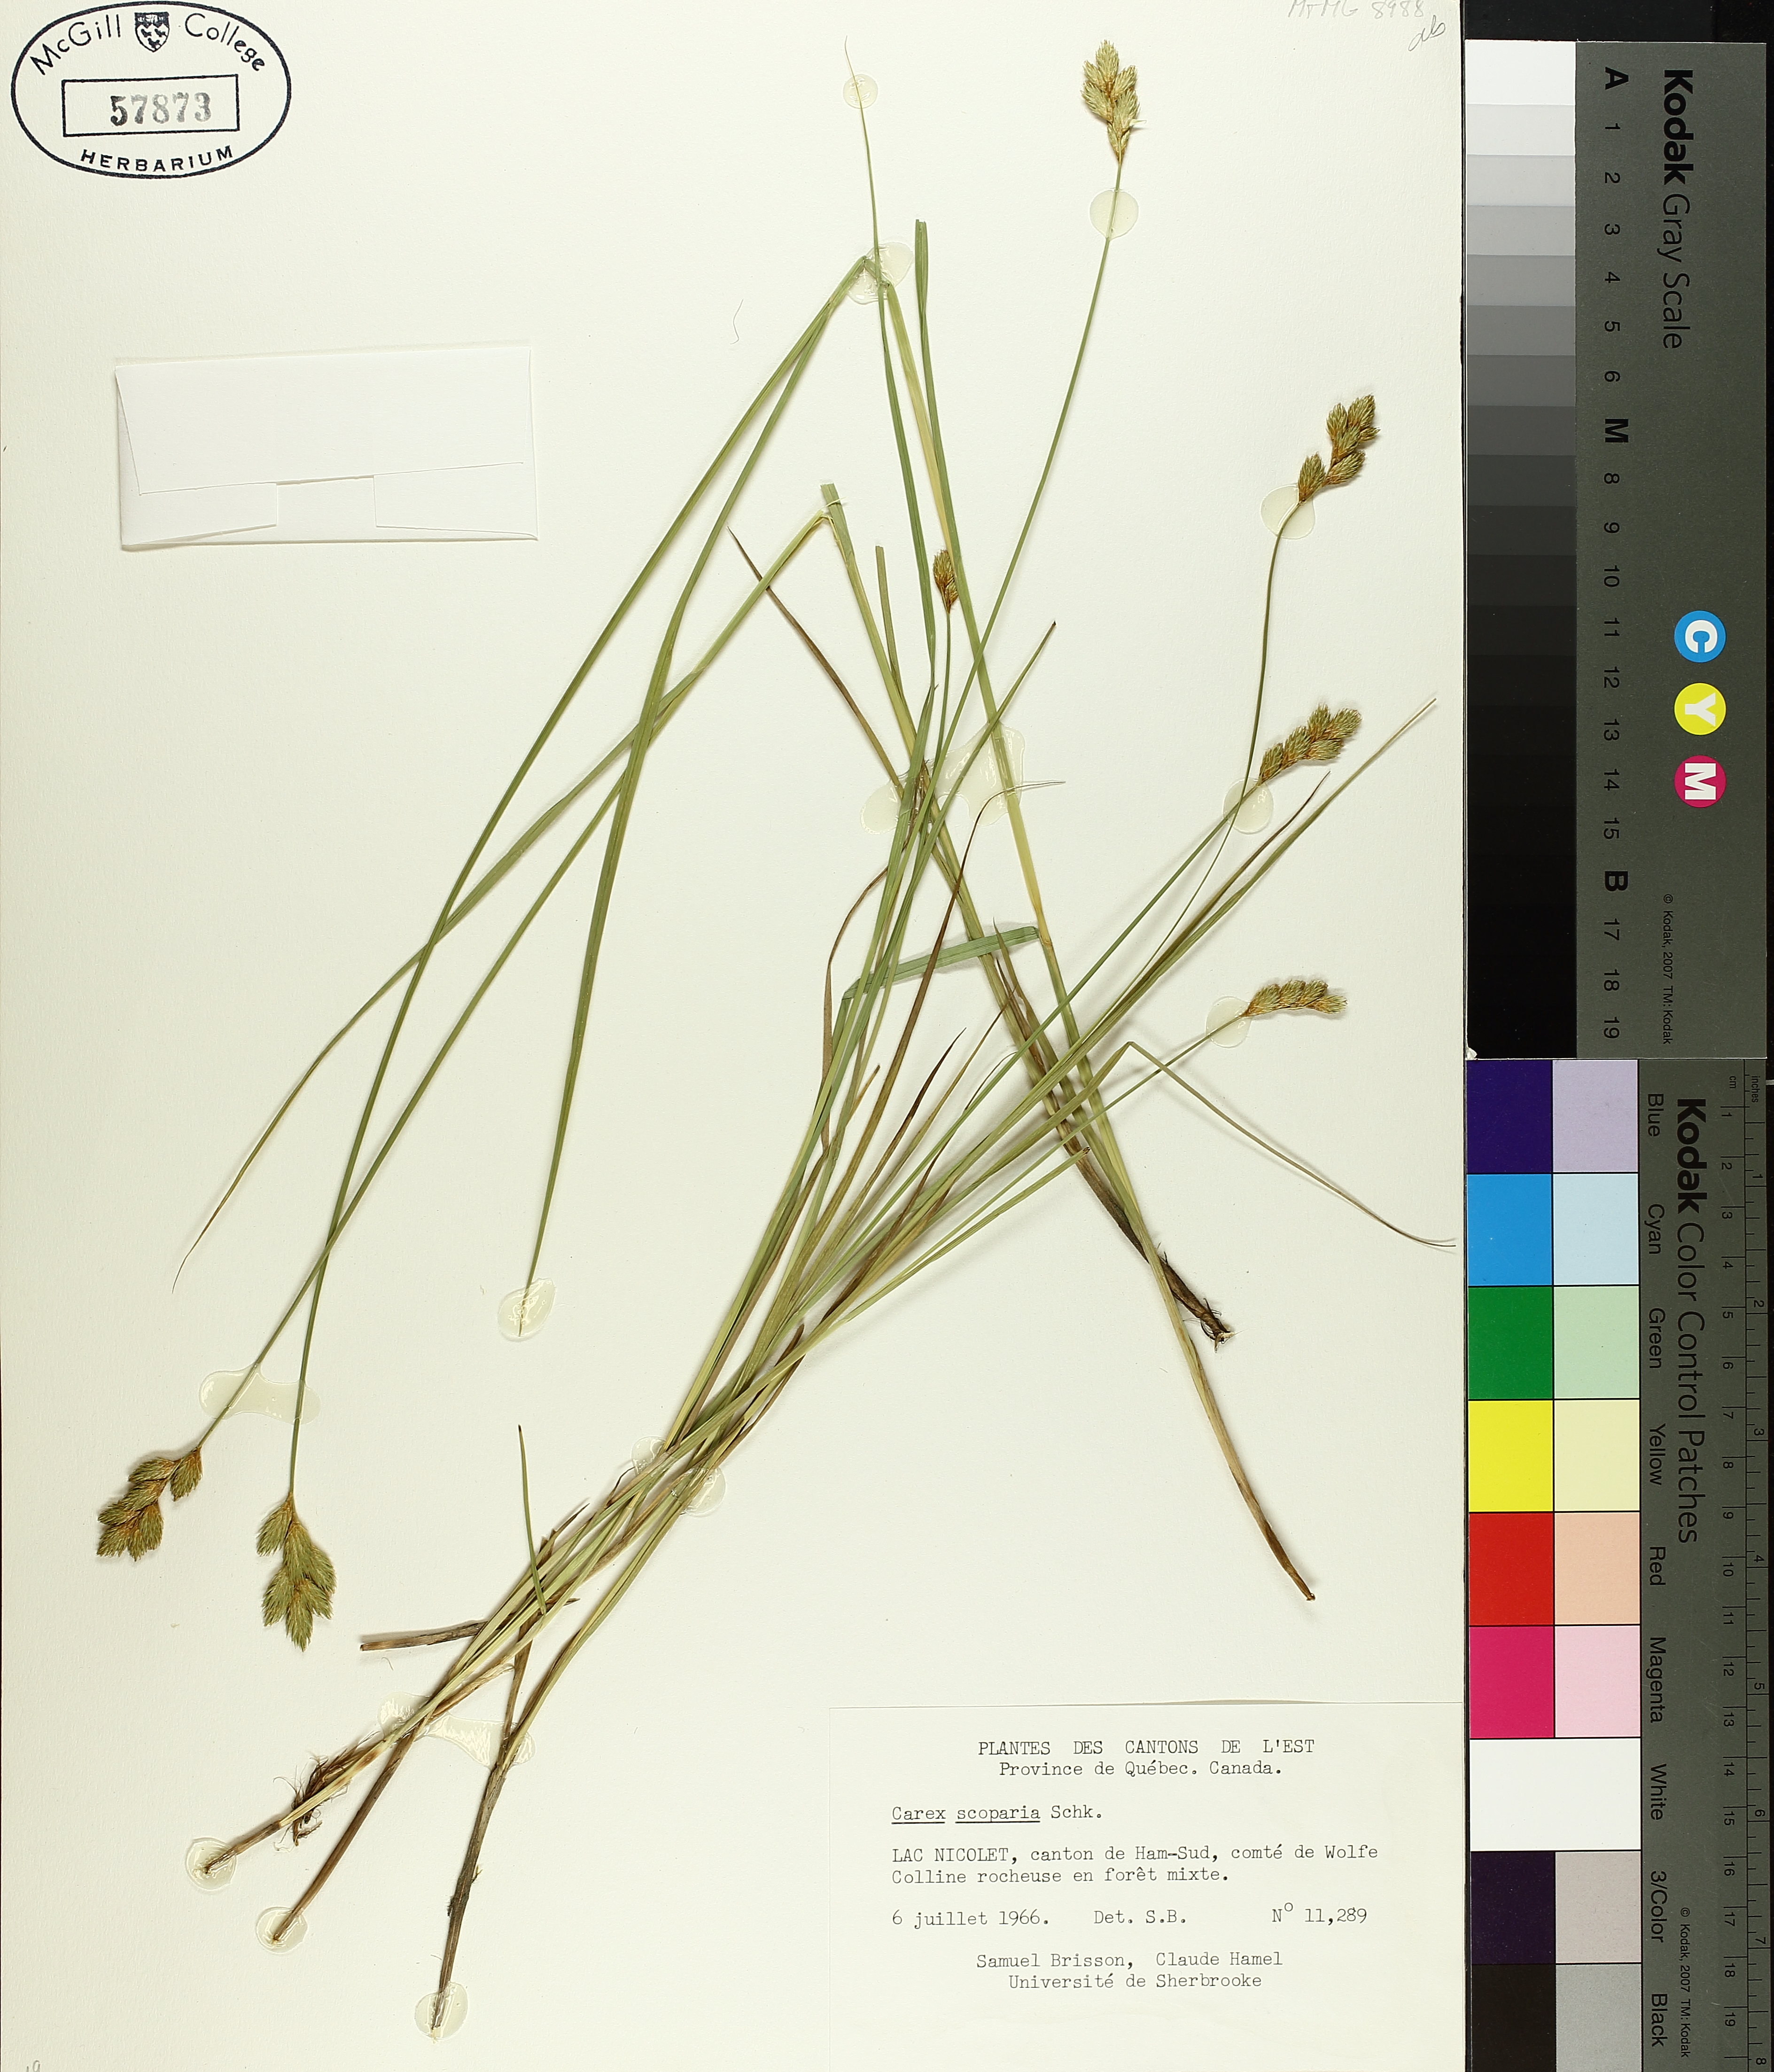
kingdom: Plantae
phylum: Tracheophyta
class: Liliopsida
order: Poales
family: Cyperaceae
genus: Carex
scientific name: Carex scoparia
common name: Broom sedge
